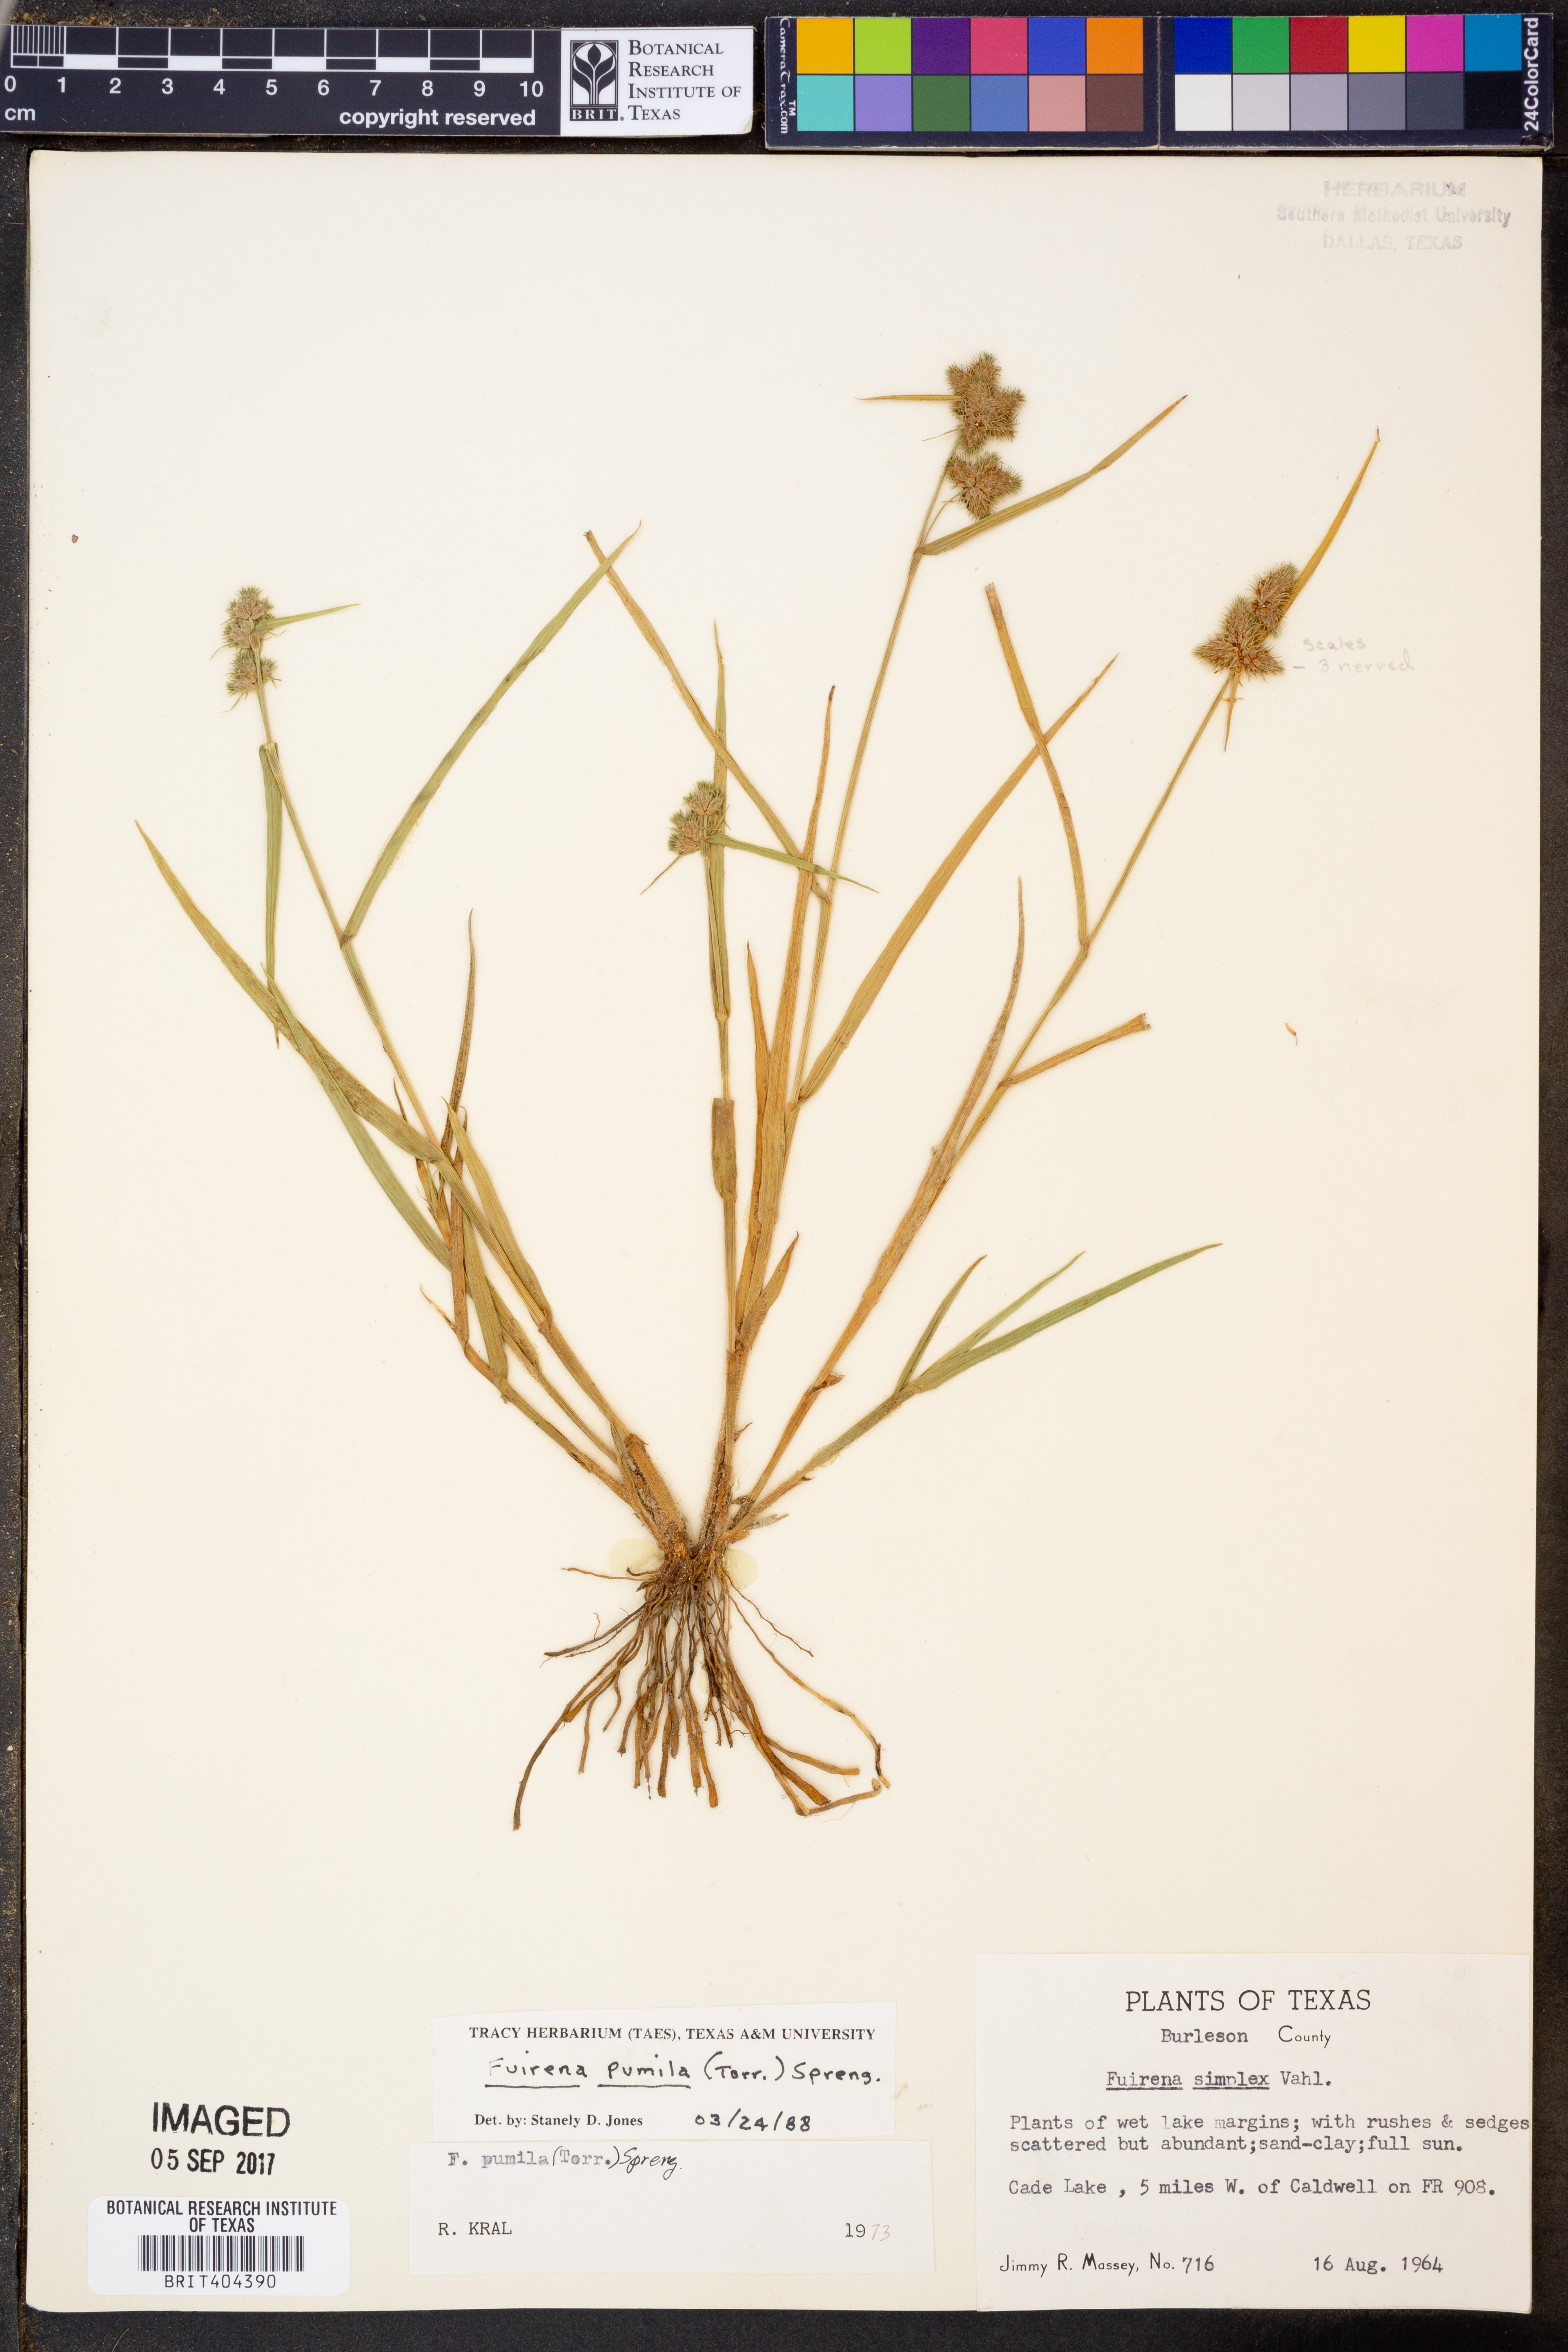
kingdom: Plantae
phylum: Tracheophyta
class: Liliopsida
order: Poales
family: Cyperaceae
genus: Fuirena
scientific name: Fuirena pumila
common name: Dwarf umbrella sedge
